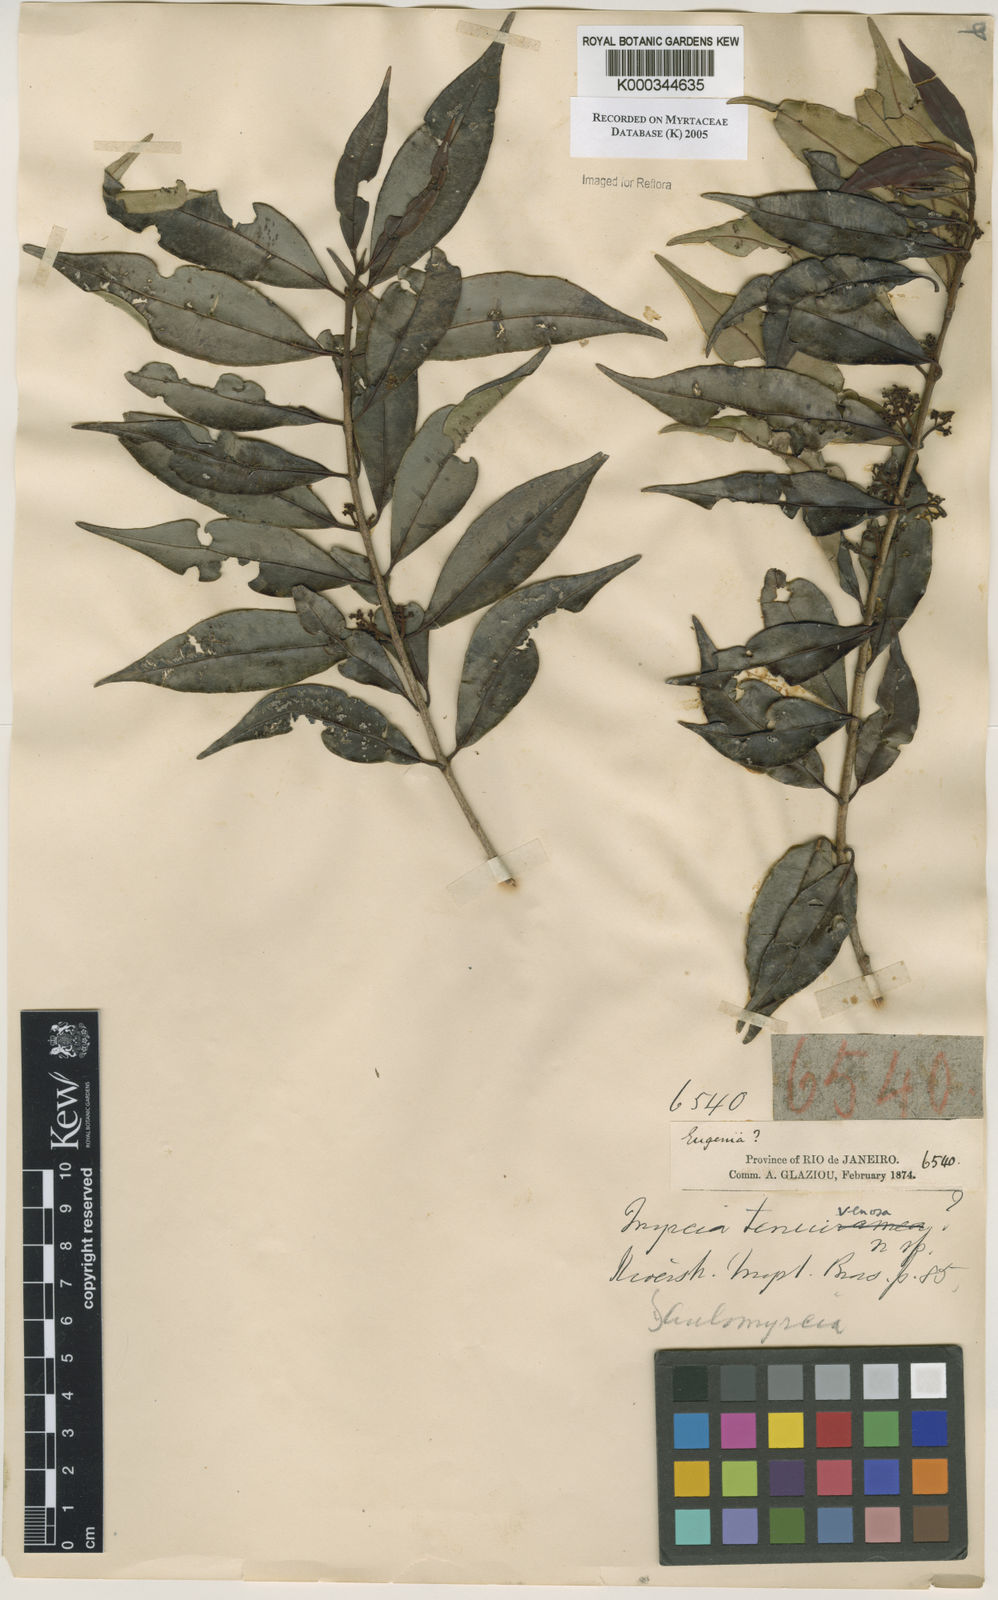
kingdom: Plantae
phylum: Tracheophyta
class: Magnoliopsida
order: Myrtales
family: Myrtaceae
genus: Myrcia
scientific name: Myrcia tenuivenosa
